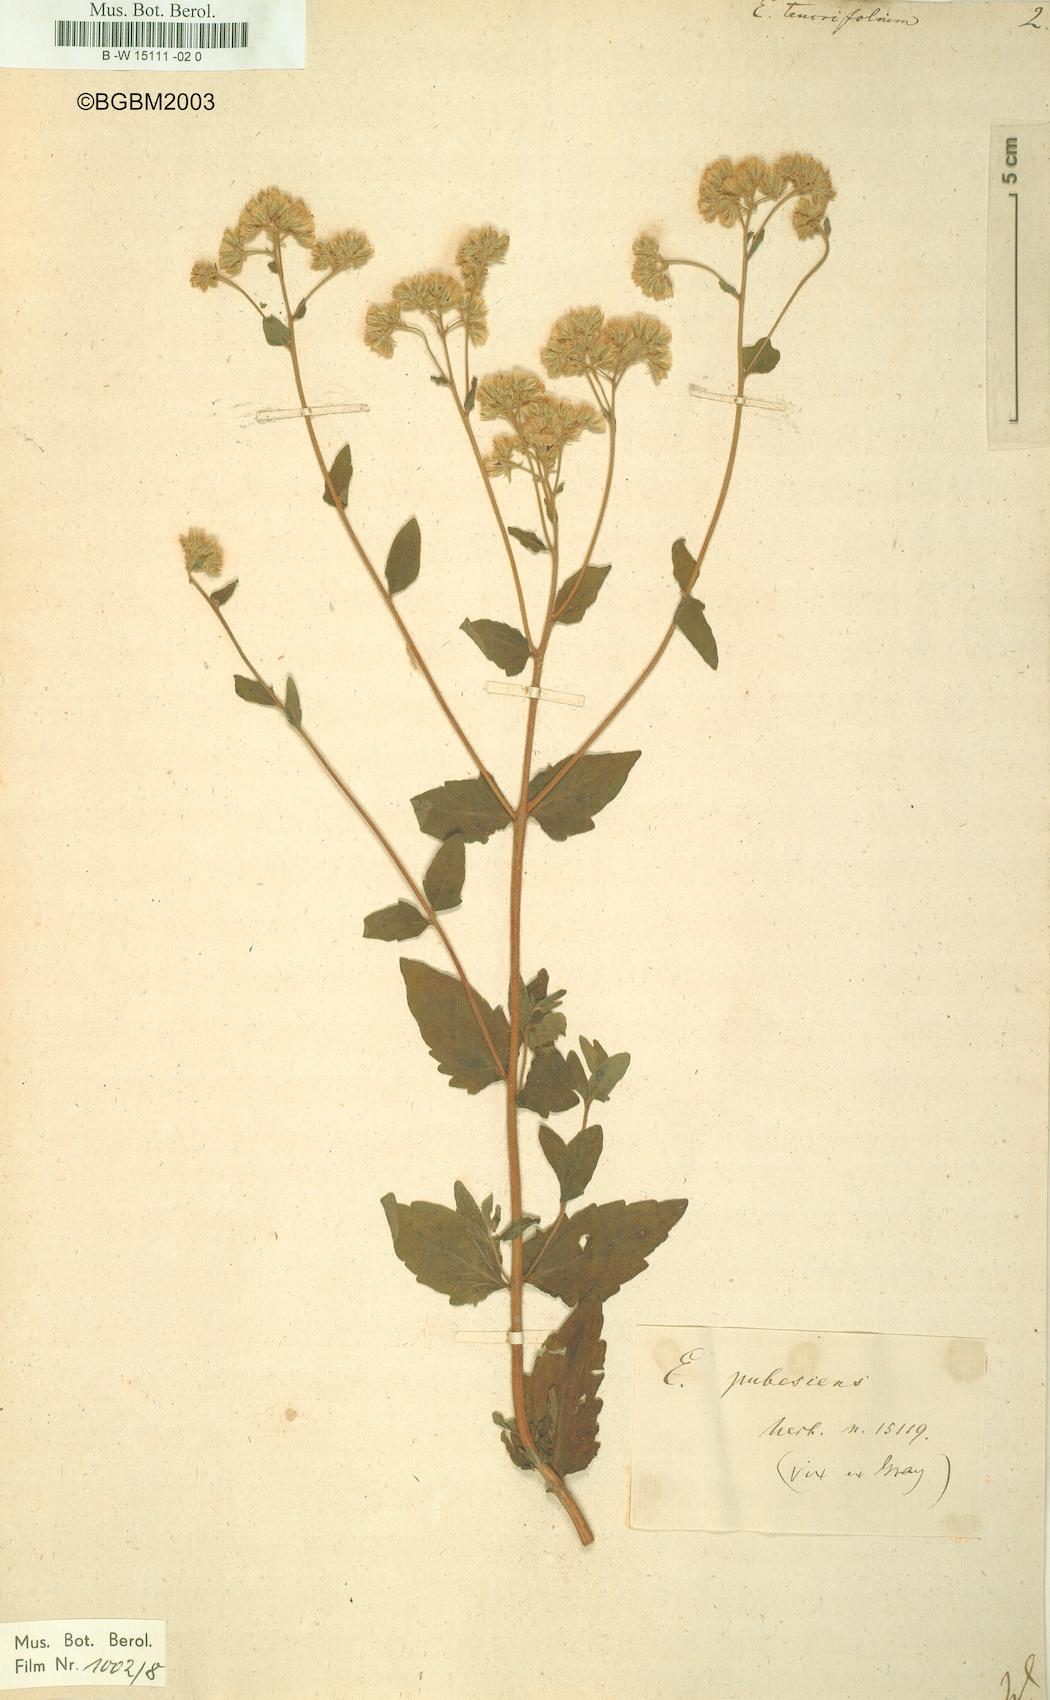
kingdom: Plantae
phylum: Tracheophyta
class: Magnoliopsida
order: Asterales
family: Asteraceae
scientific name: Asteraceae
